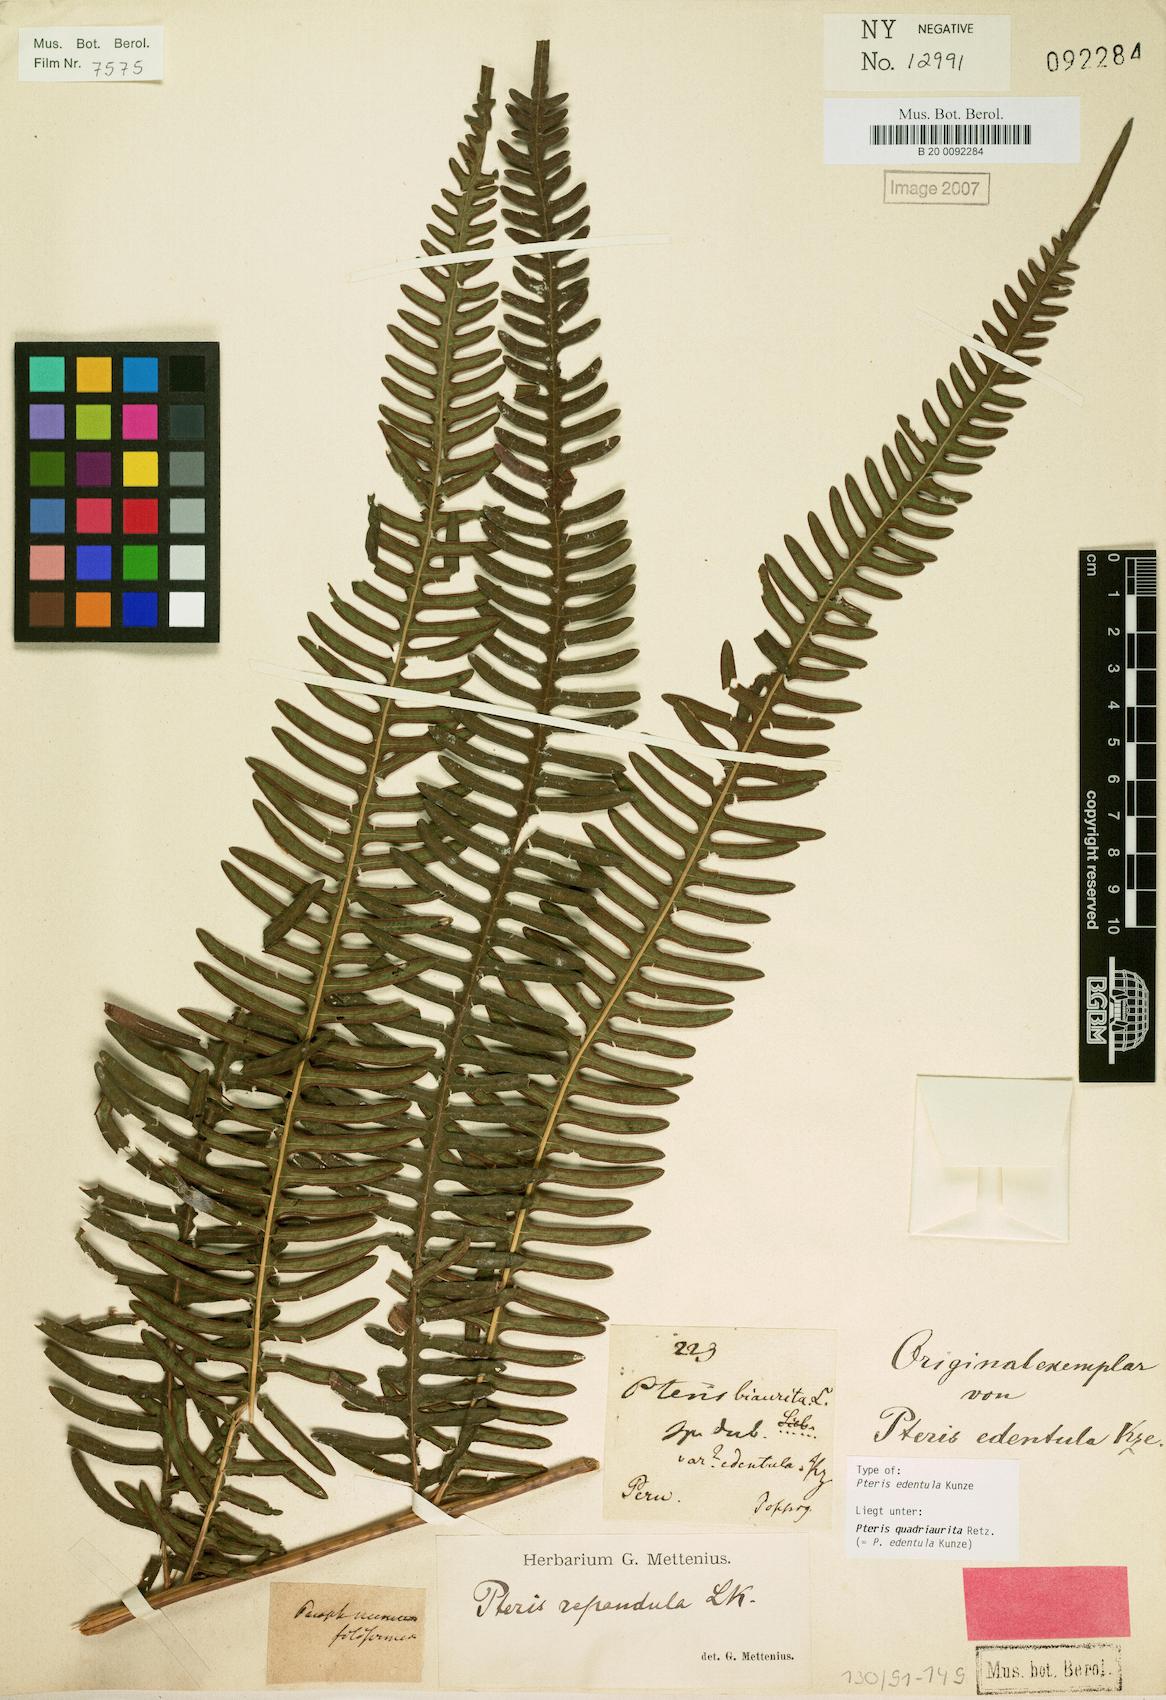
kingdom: Plantae
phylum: Tracheophyta
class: Polypodiopsida
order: Polypodiales
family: Pteridaceae
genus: Pteris
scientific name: Pteris quadriaurita
